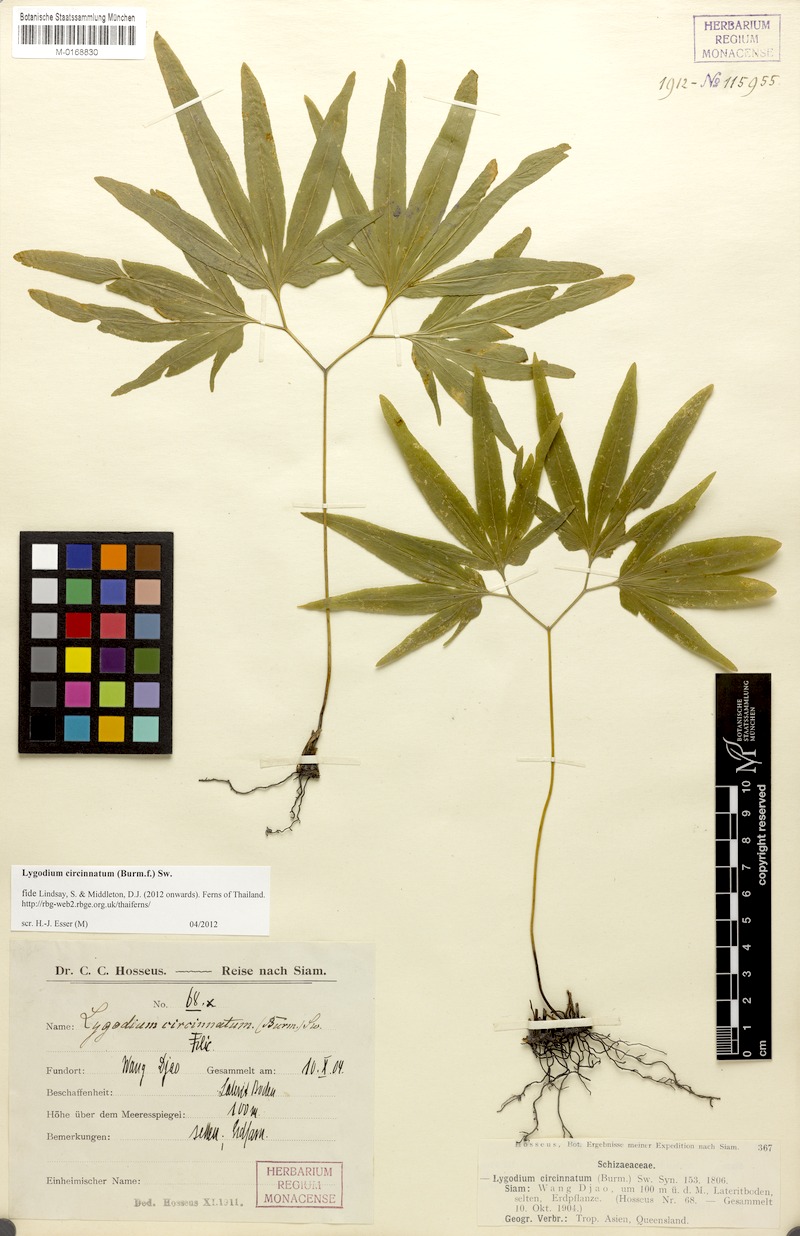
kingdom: Plantae
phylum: Tracheophyta
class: Polypodiopsida
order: Schizaeales
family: Lygodiaceae
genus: Lygodium
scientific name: Lygodium circinnatum
